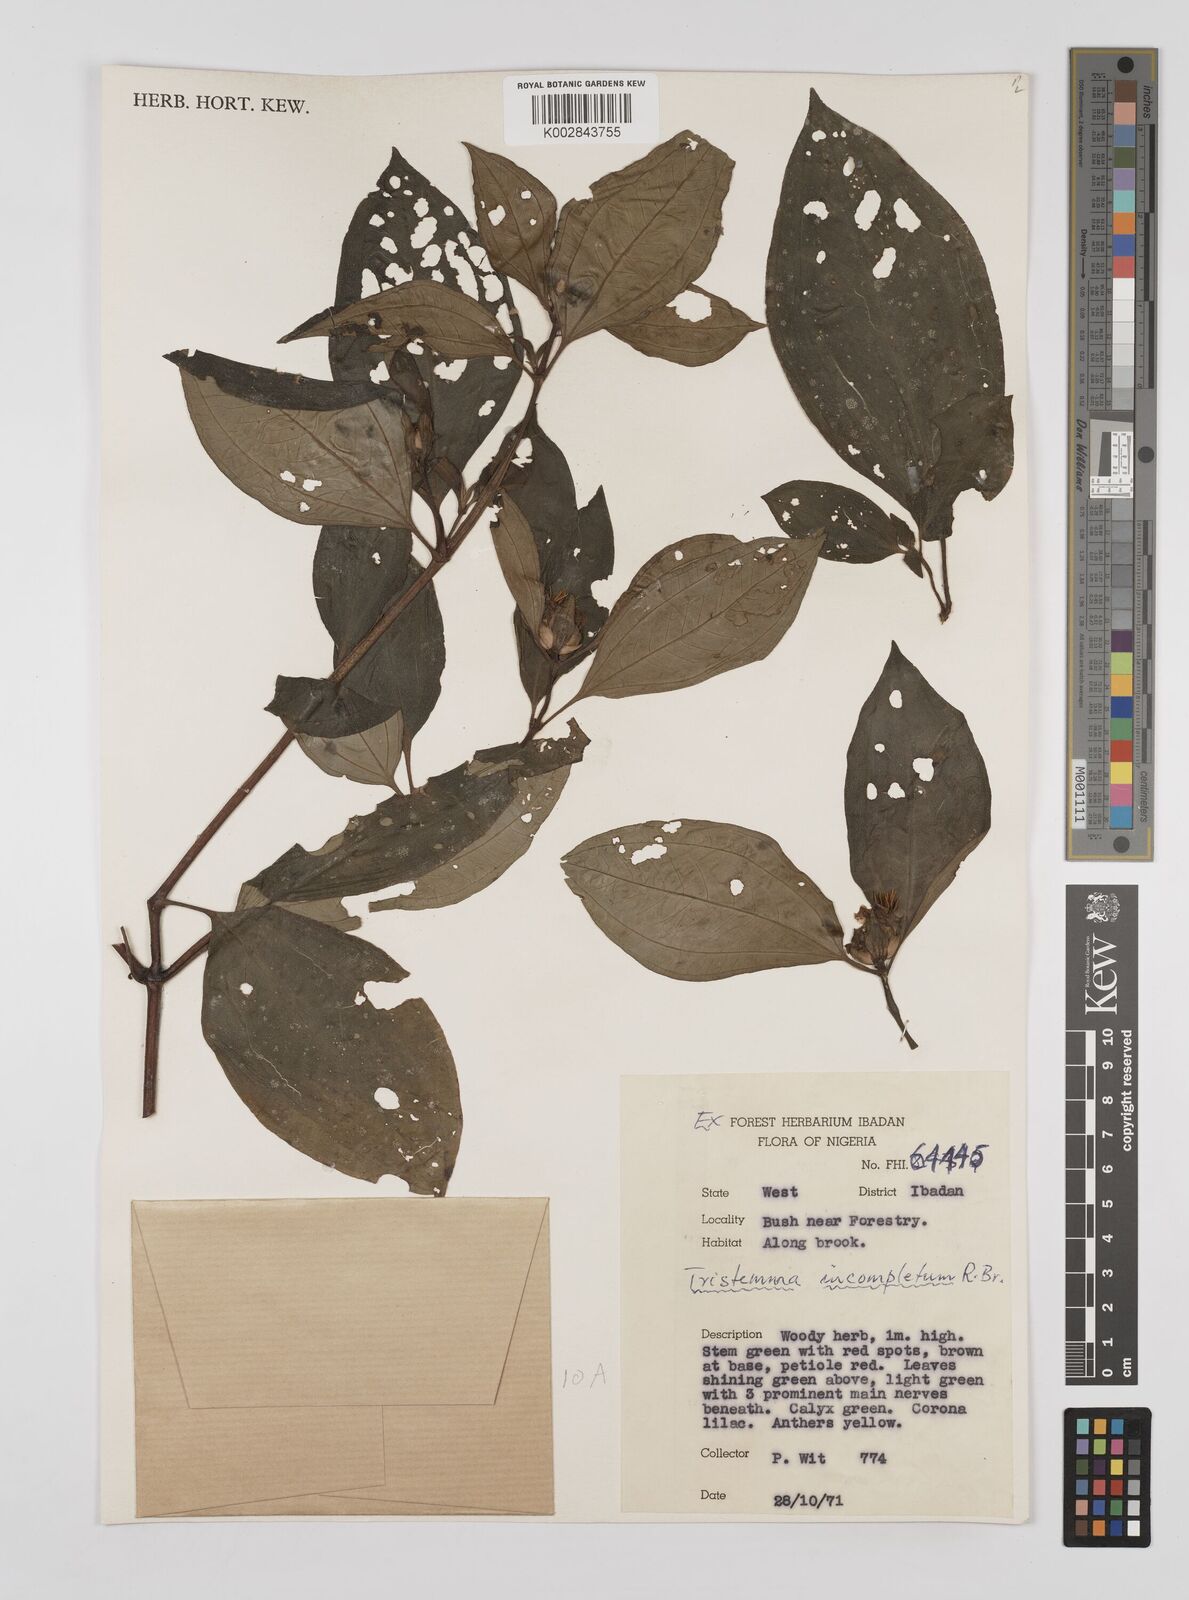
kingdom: Plantae
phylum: Tracheophyta
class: Magnoliopsida
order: Myrtales
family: Melastomataceae
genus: Tristemma
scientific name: Tristemma mauritianum
